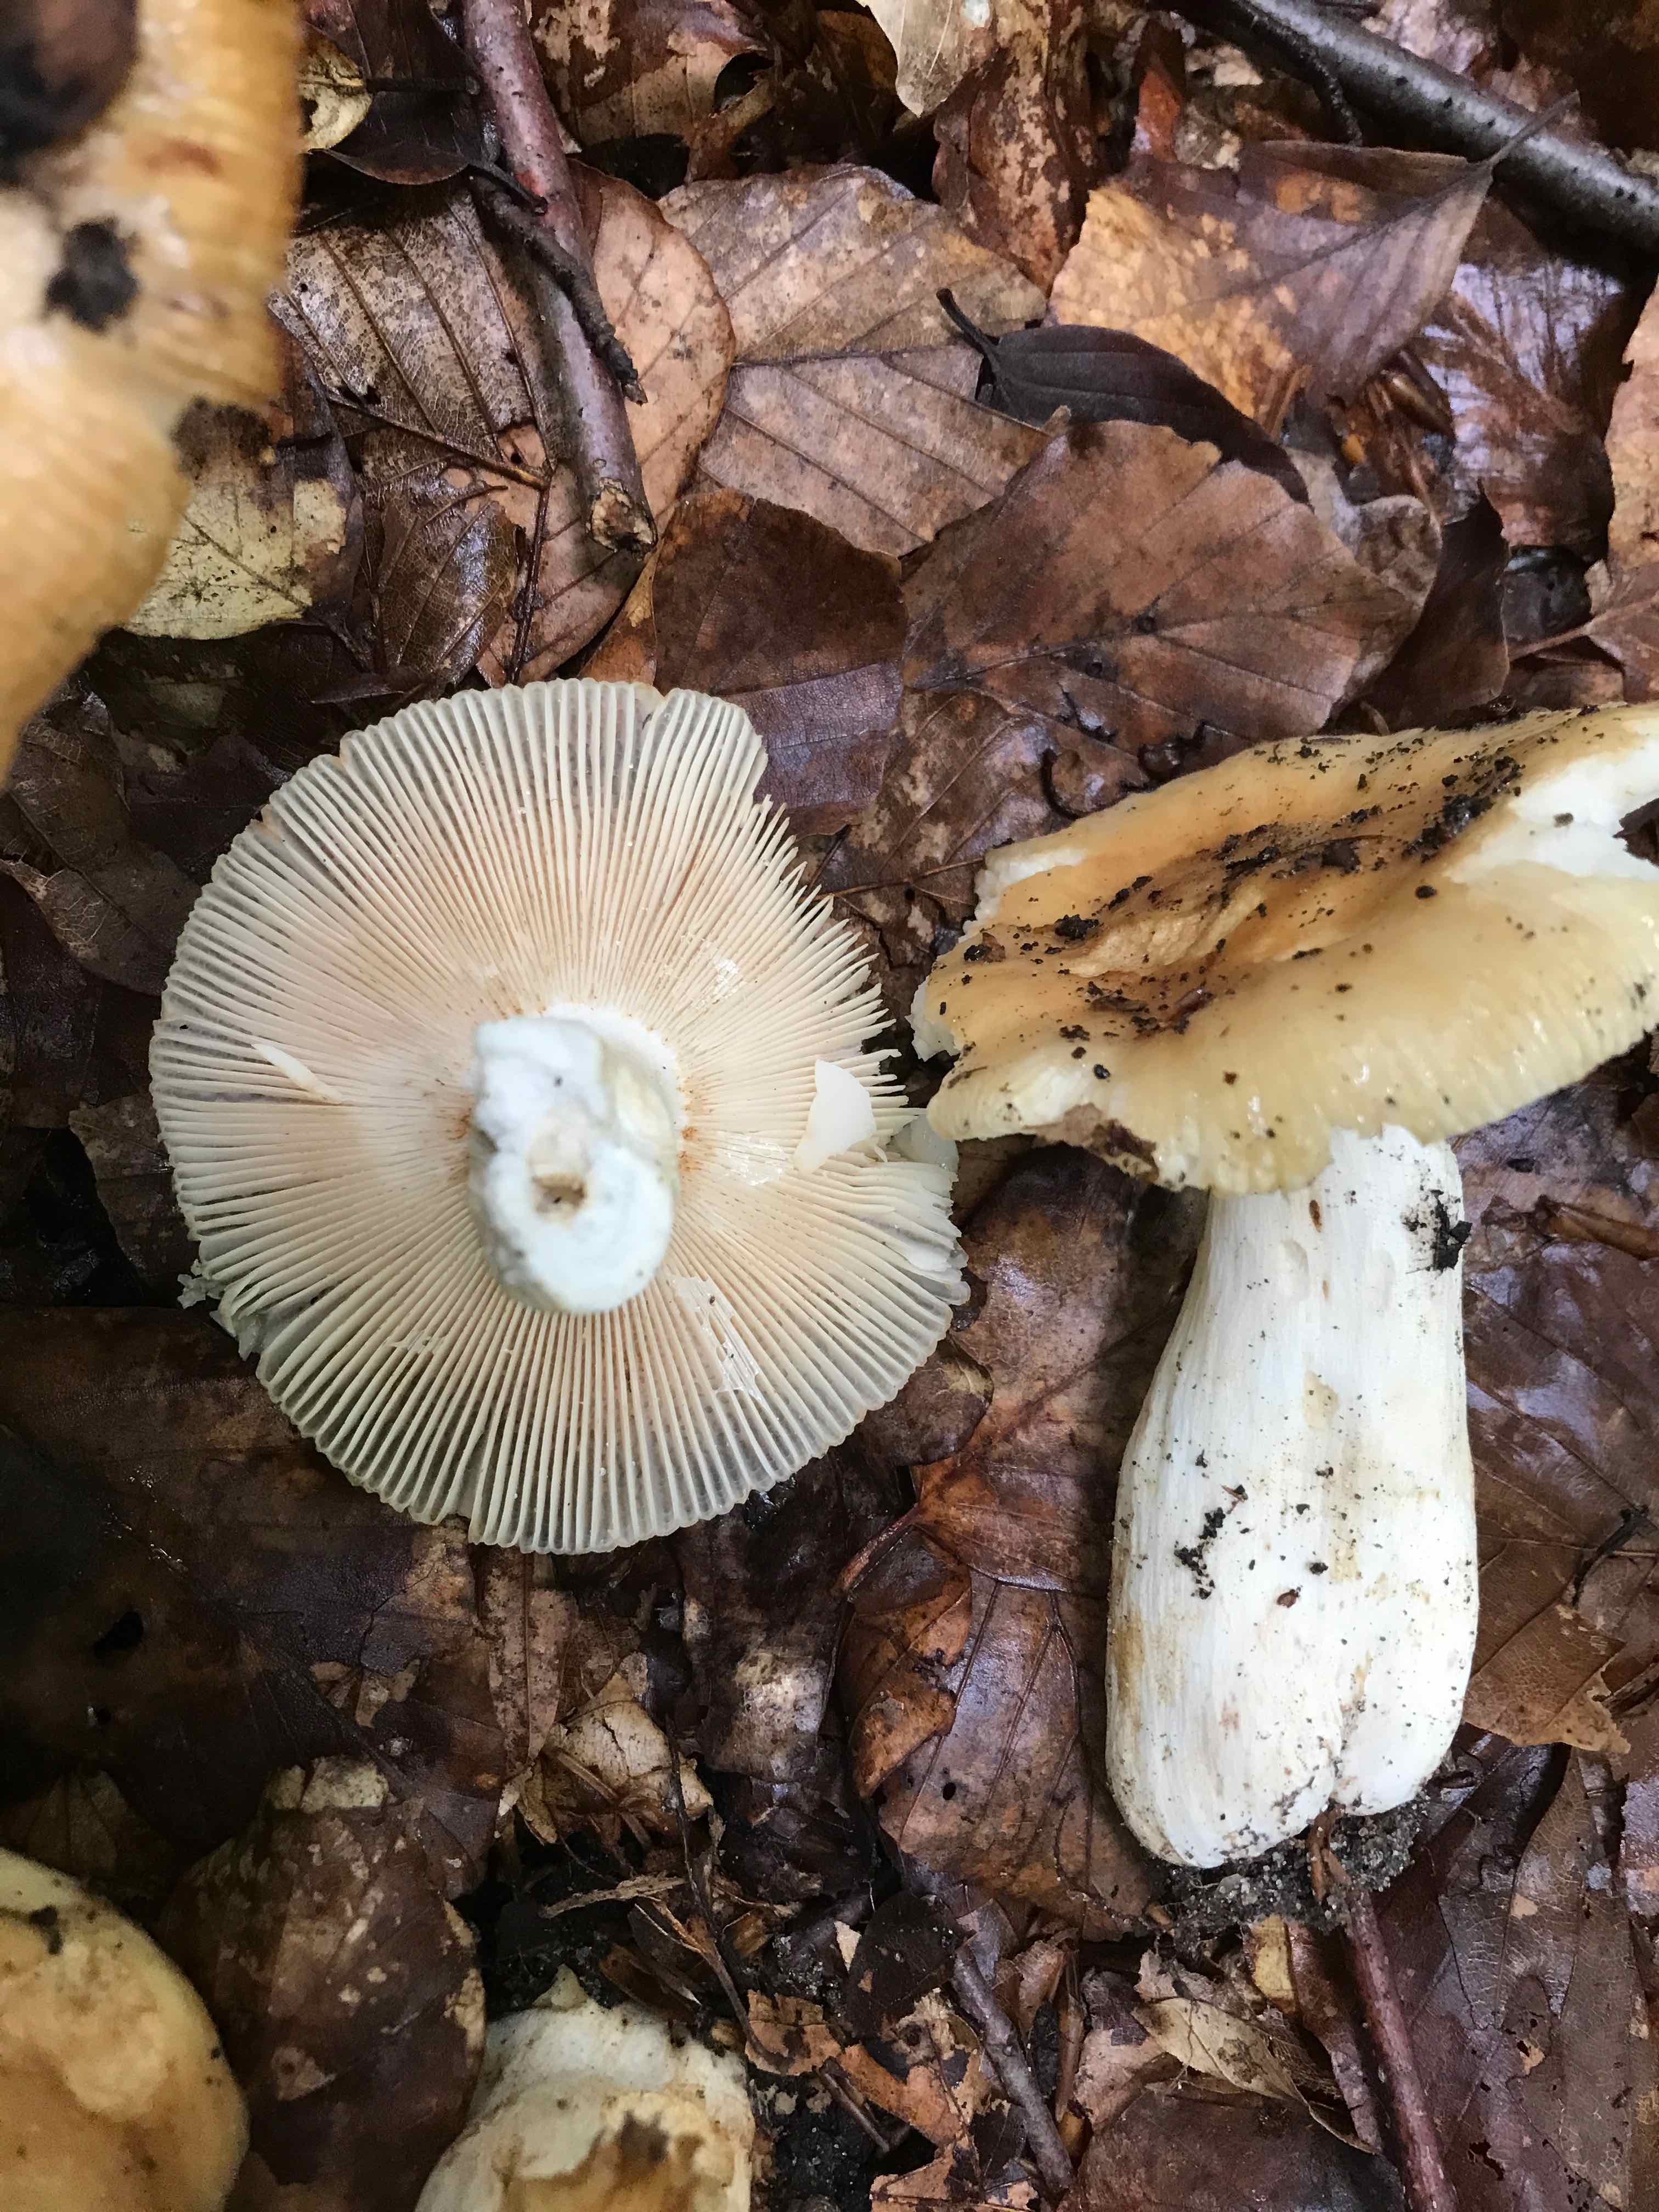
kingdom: Fungi
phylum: Basidiomycota
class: Agaricomycetes
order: Russulales
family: Russulaceae
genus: Russula
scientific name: Russula foetens
